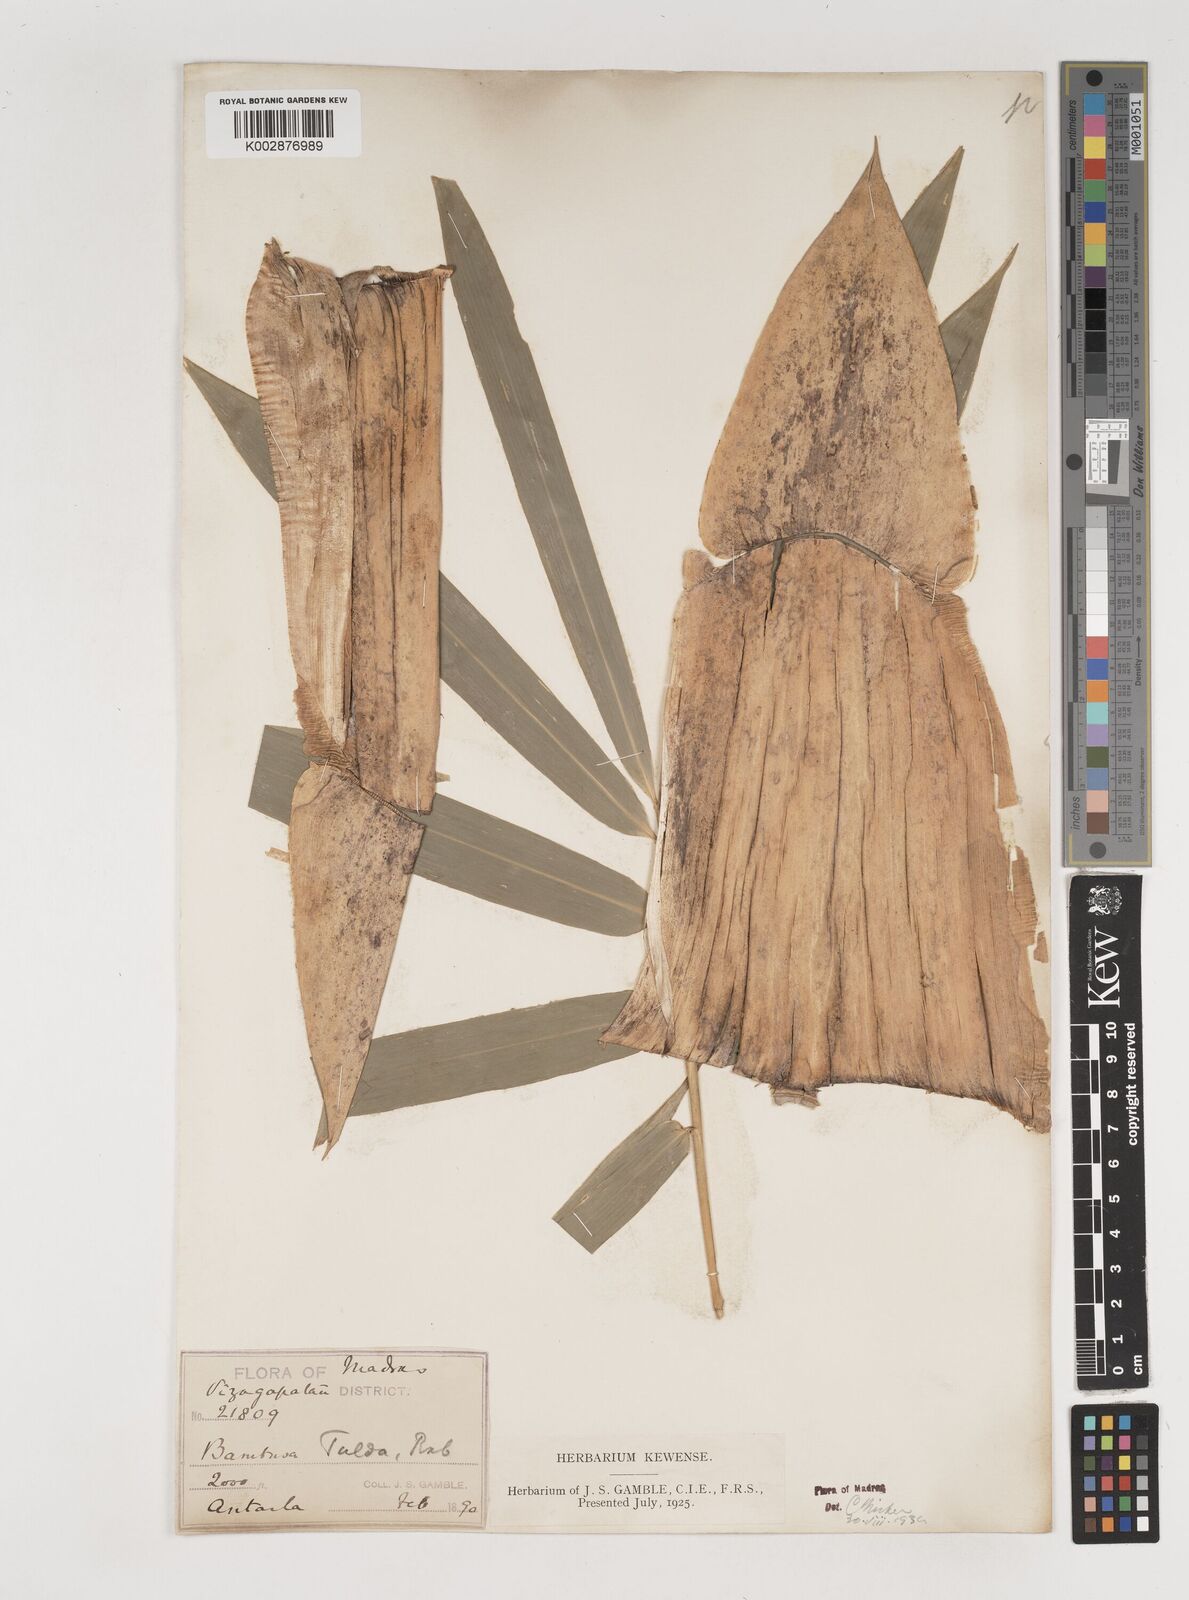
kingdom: Plantae
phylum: Tracheophyta
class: Liliopsida
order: Poales
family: Poaceae
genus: Bambusa
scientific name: Bambusa tulda
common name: Bengal bamboo
